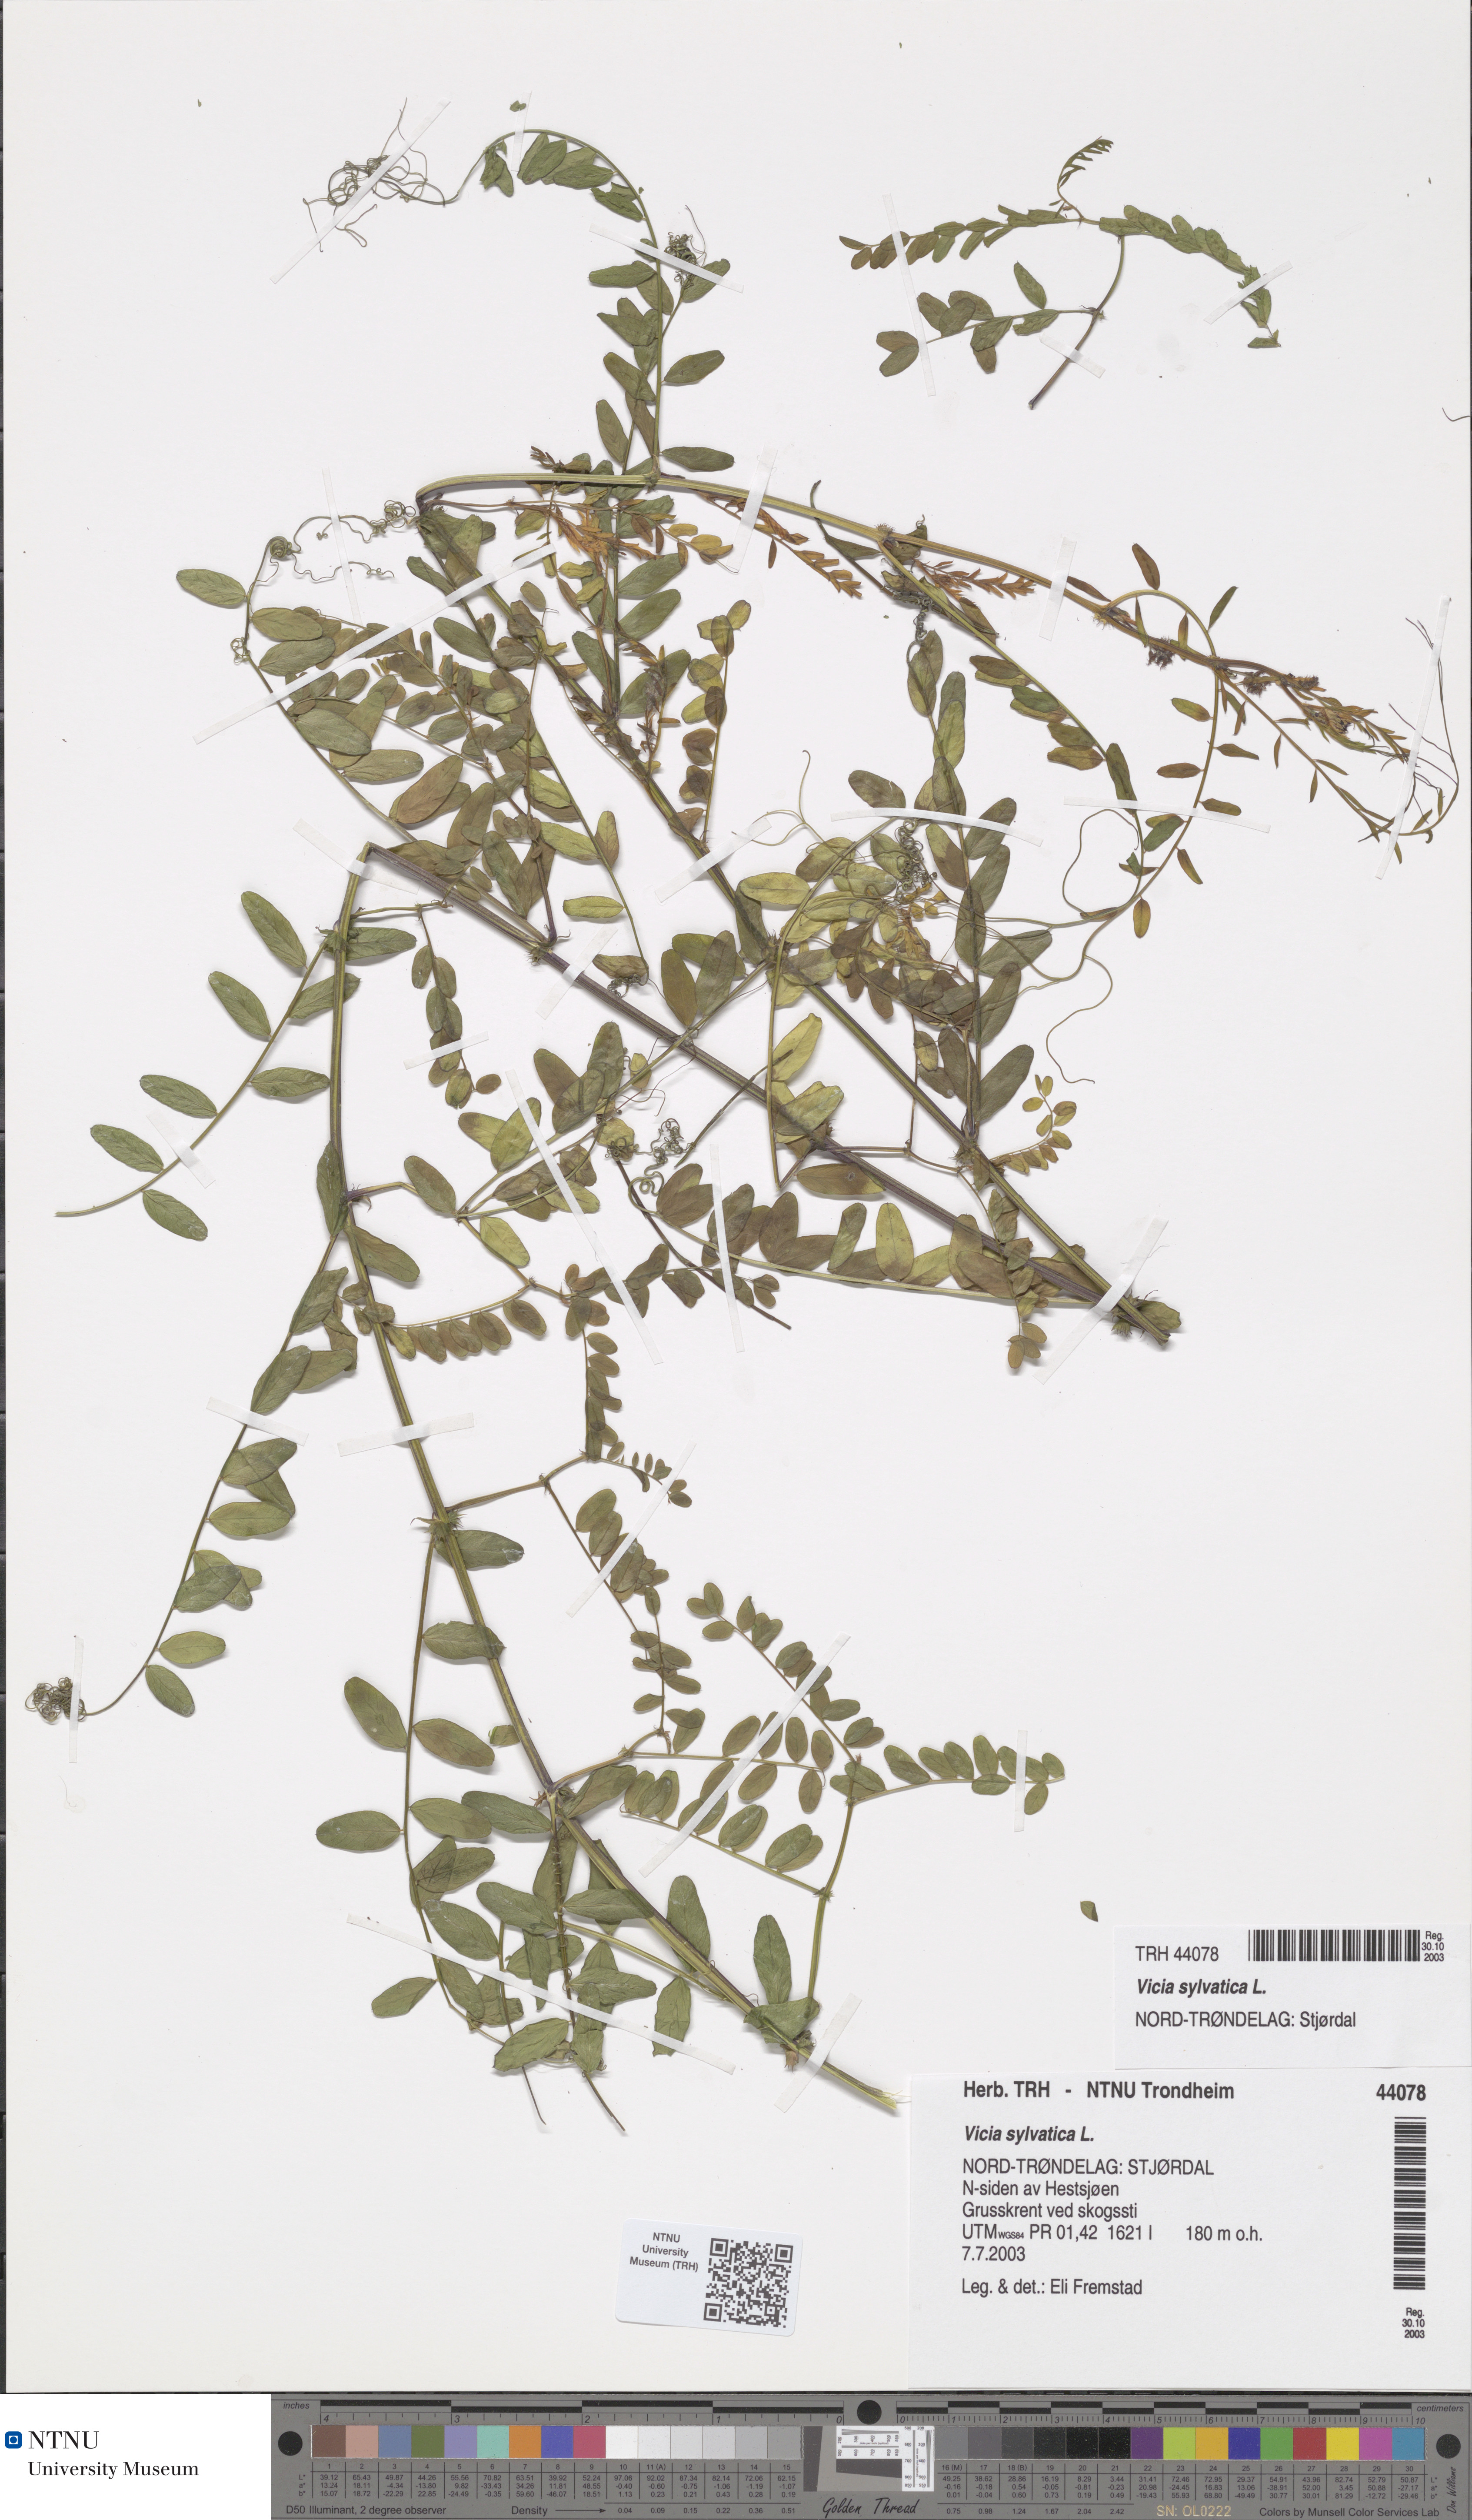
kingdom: Plantae
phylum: Tracheophyta
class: Magnoliopsida
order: Fabales
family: Fabaceae
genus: Vicia
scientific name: Vicia sylvatica
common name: Wood vetch
